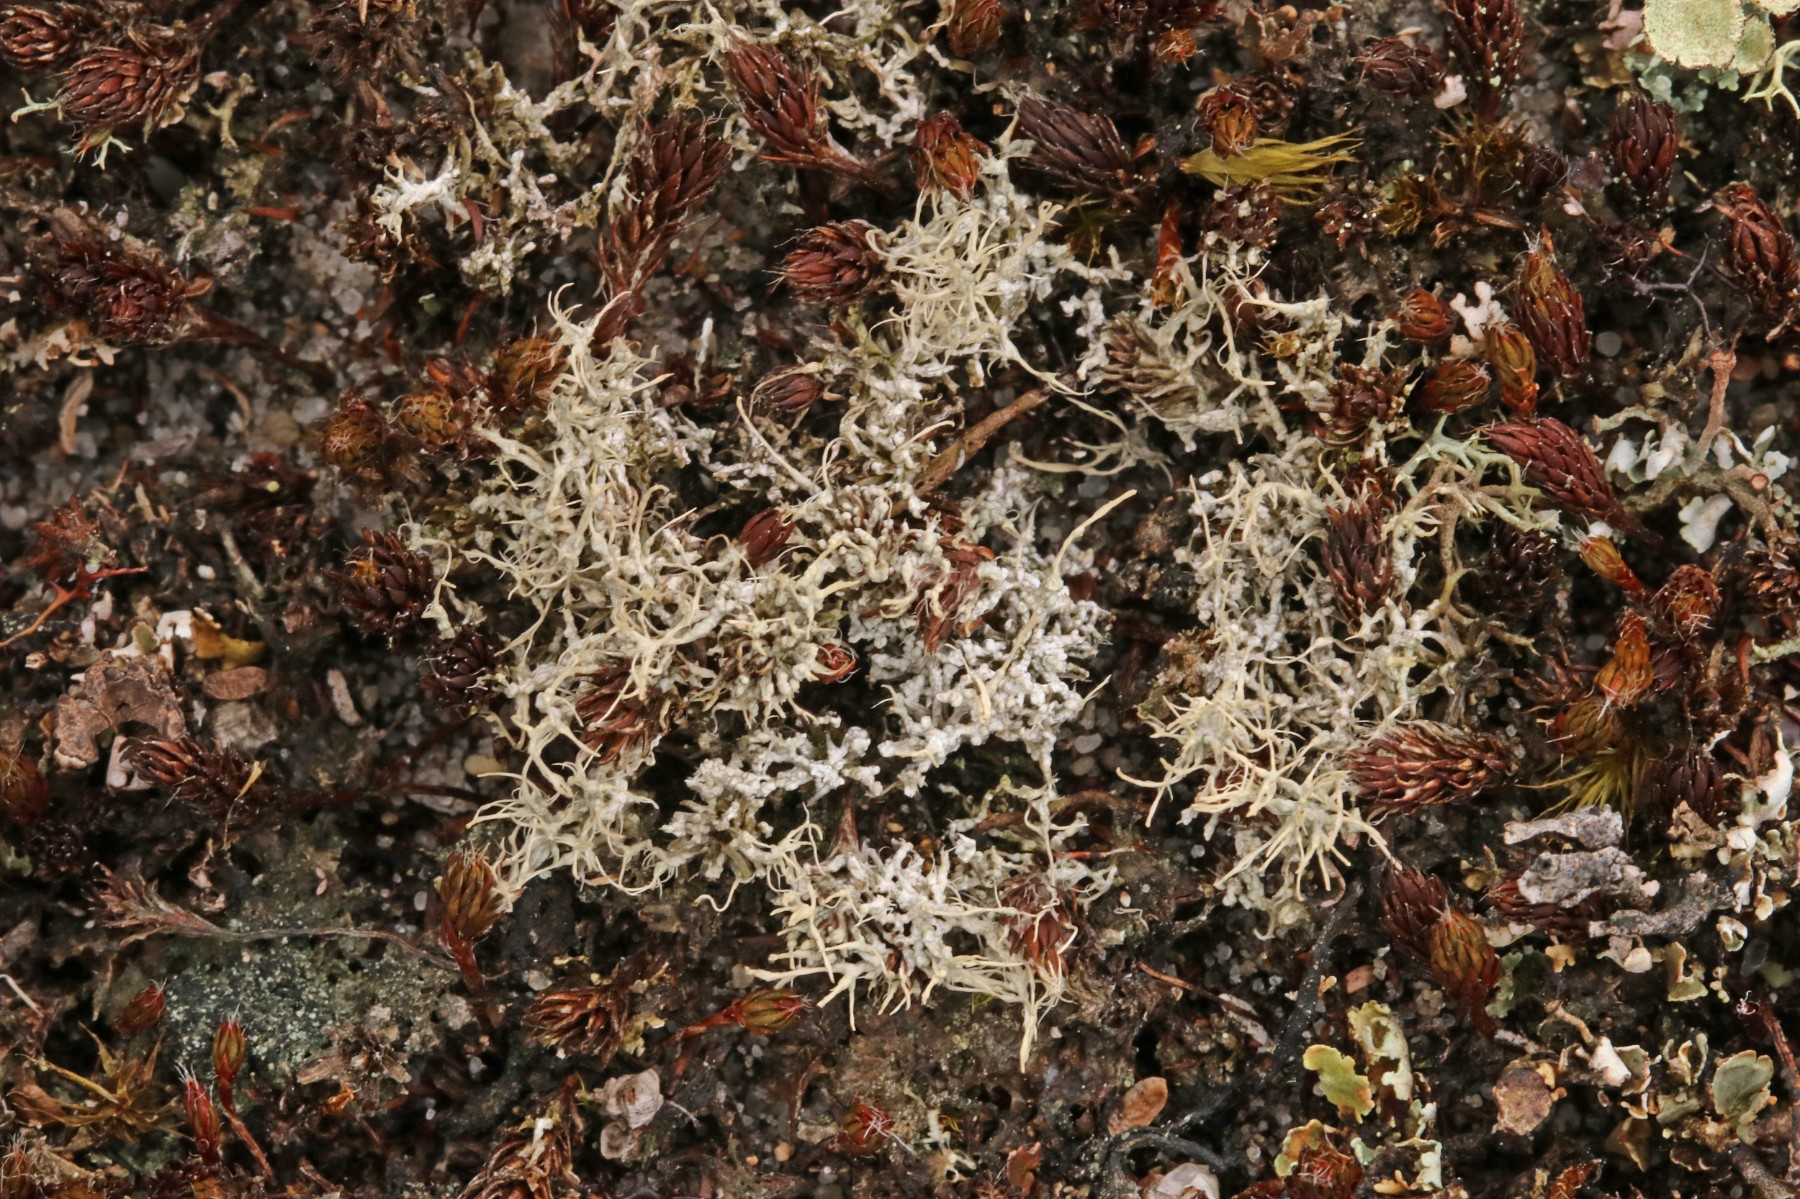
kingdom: Fungi
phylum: Ascomycota
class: Lecanoromycetes
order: Pertusariales
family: Ochrolechiaceae
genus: Ochrolechia
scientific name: Ochrolechia frigida
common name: fjeld-blegskivelav
